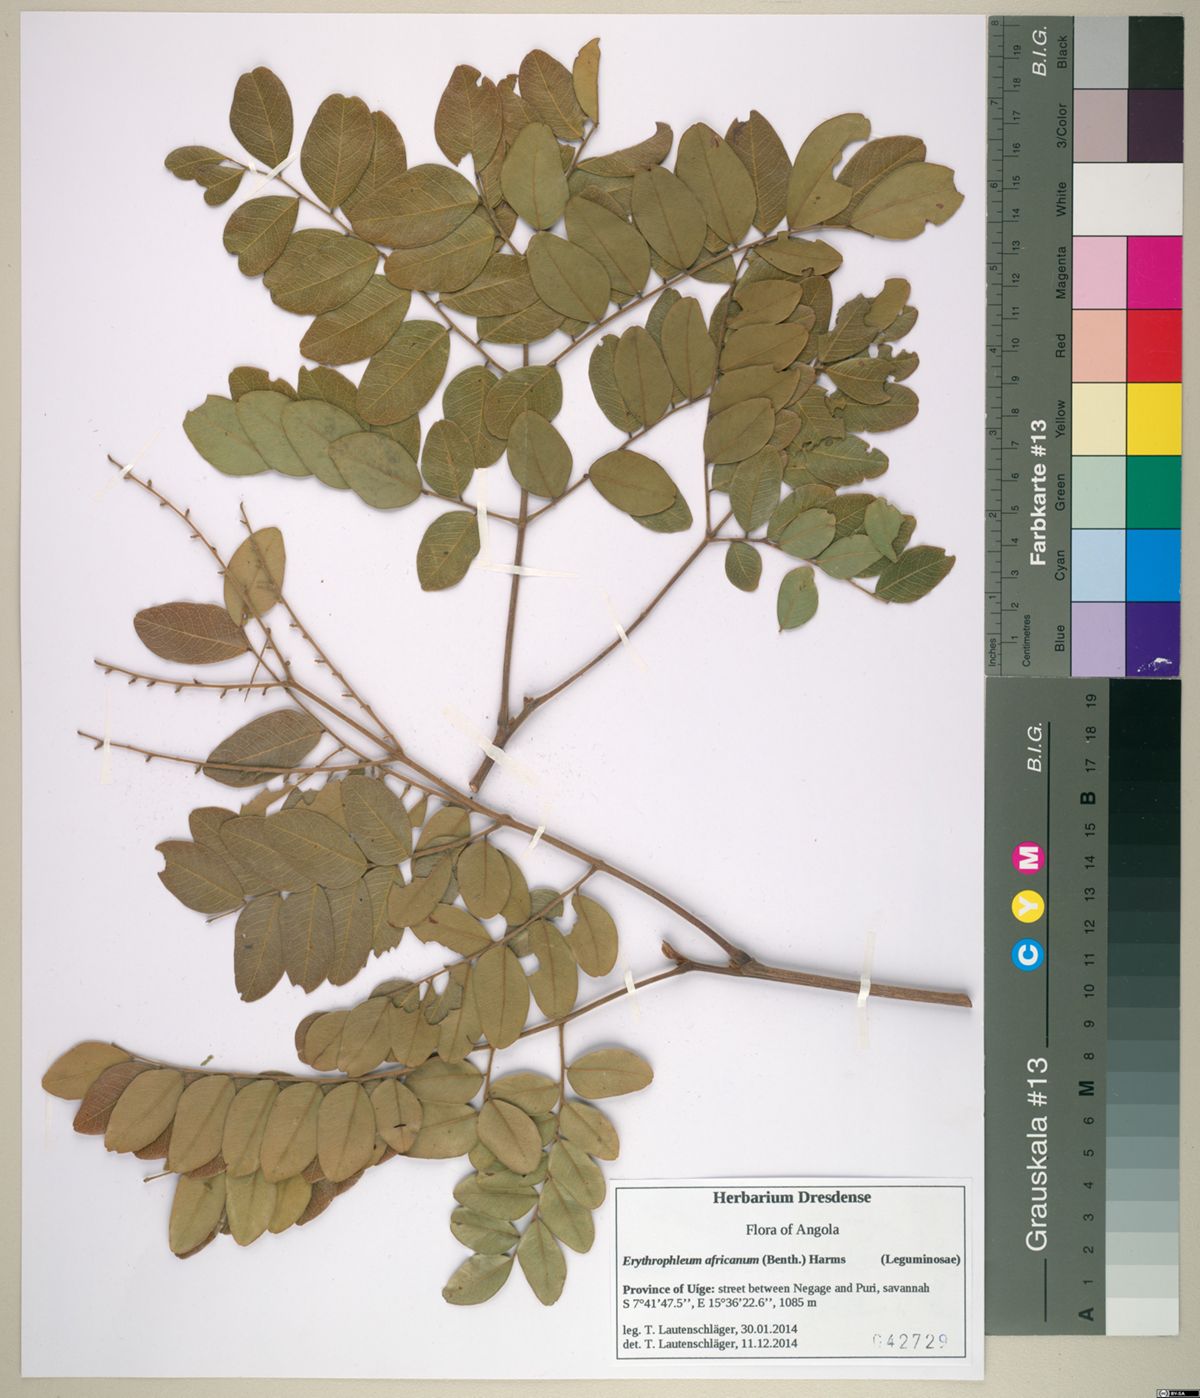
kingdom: Plantae
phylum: Tracheophyta
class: Magnoliopsida
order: Fabales
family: Fabaceae
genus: Erythrophleum
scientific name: Erythrophleum africanum
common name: African blackwood
